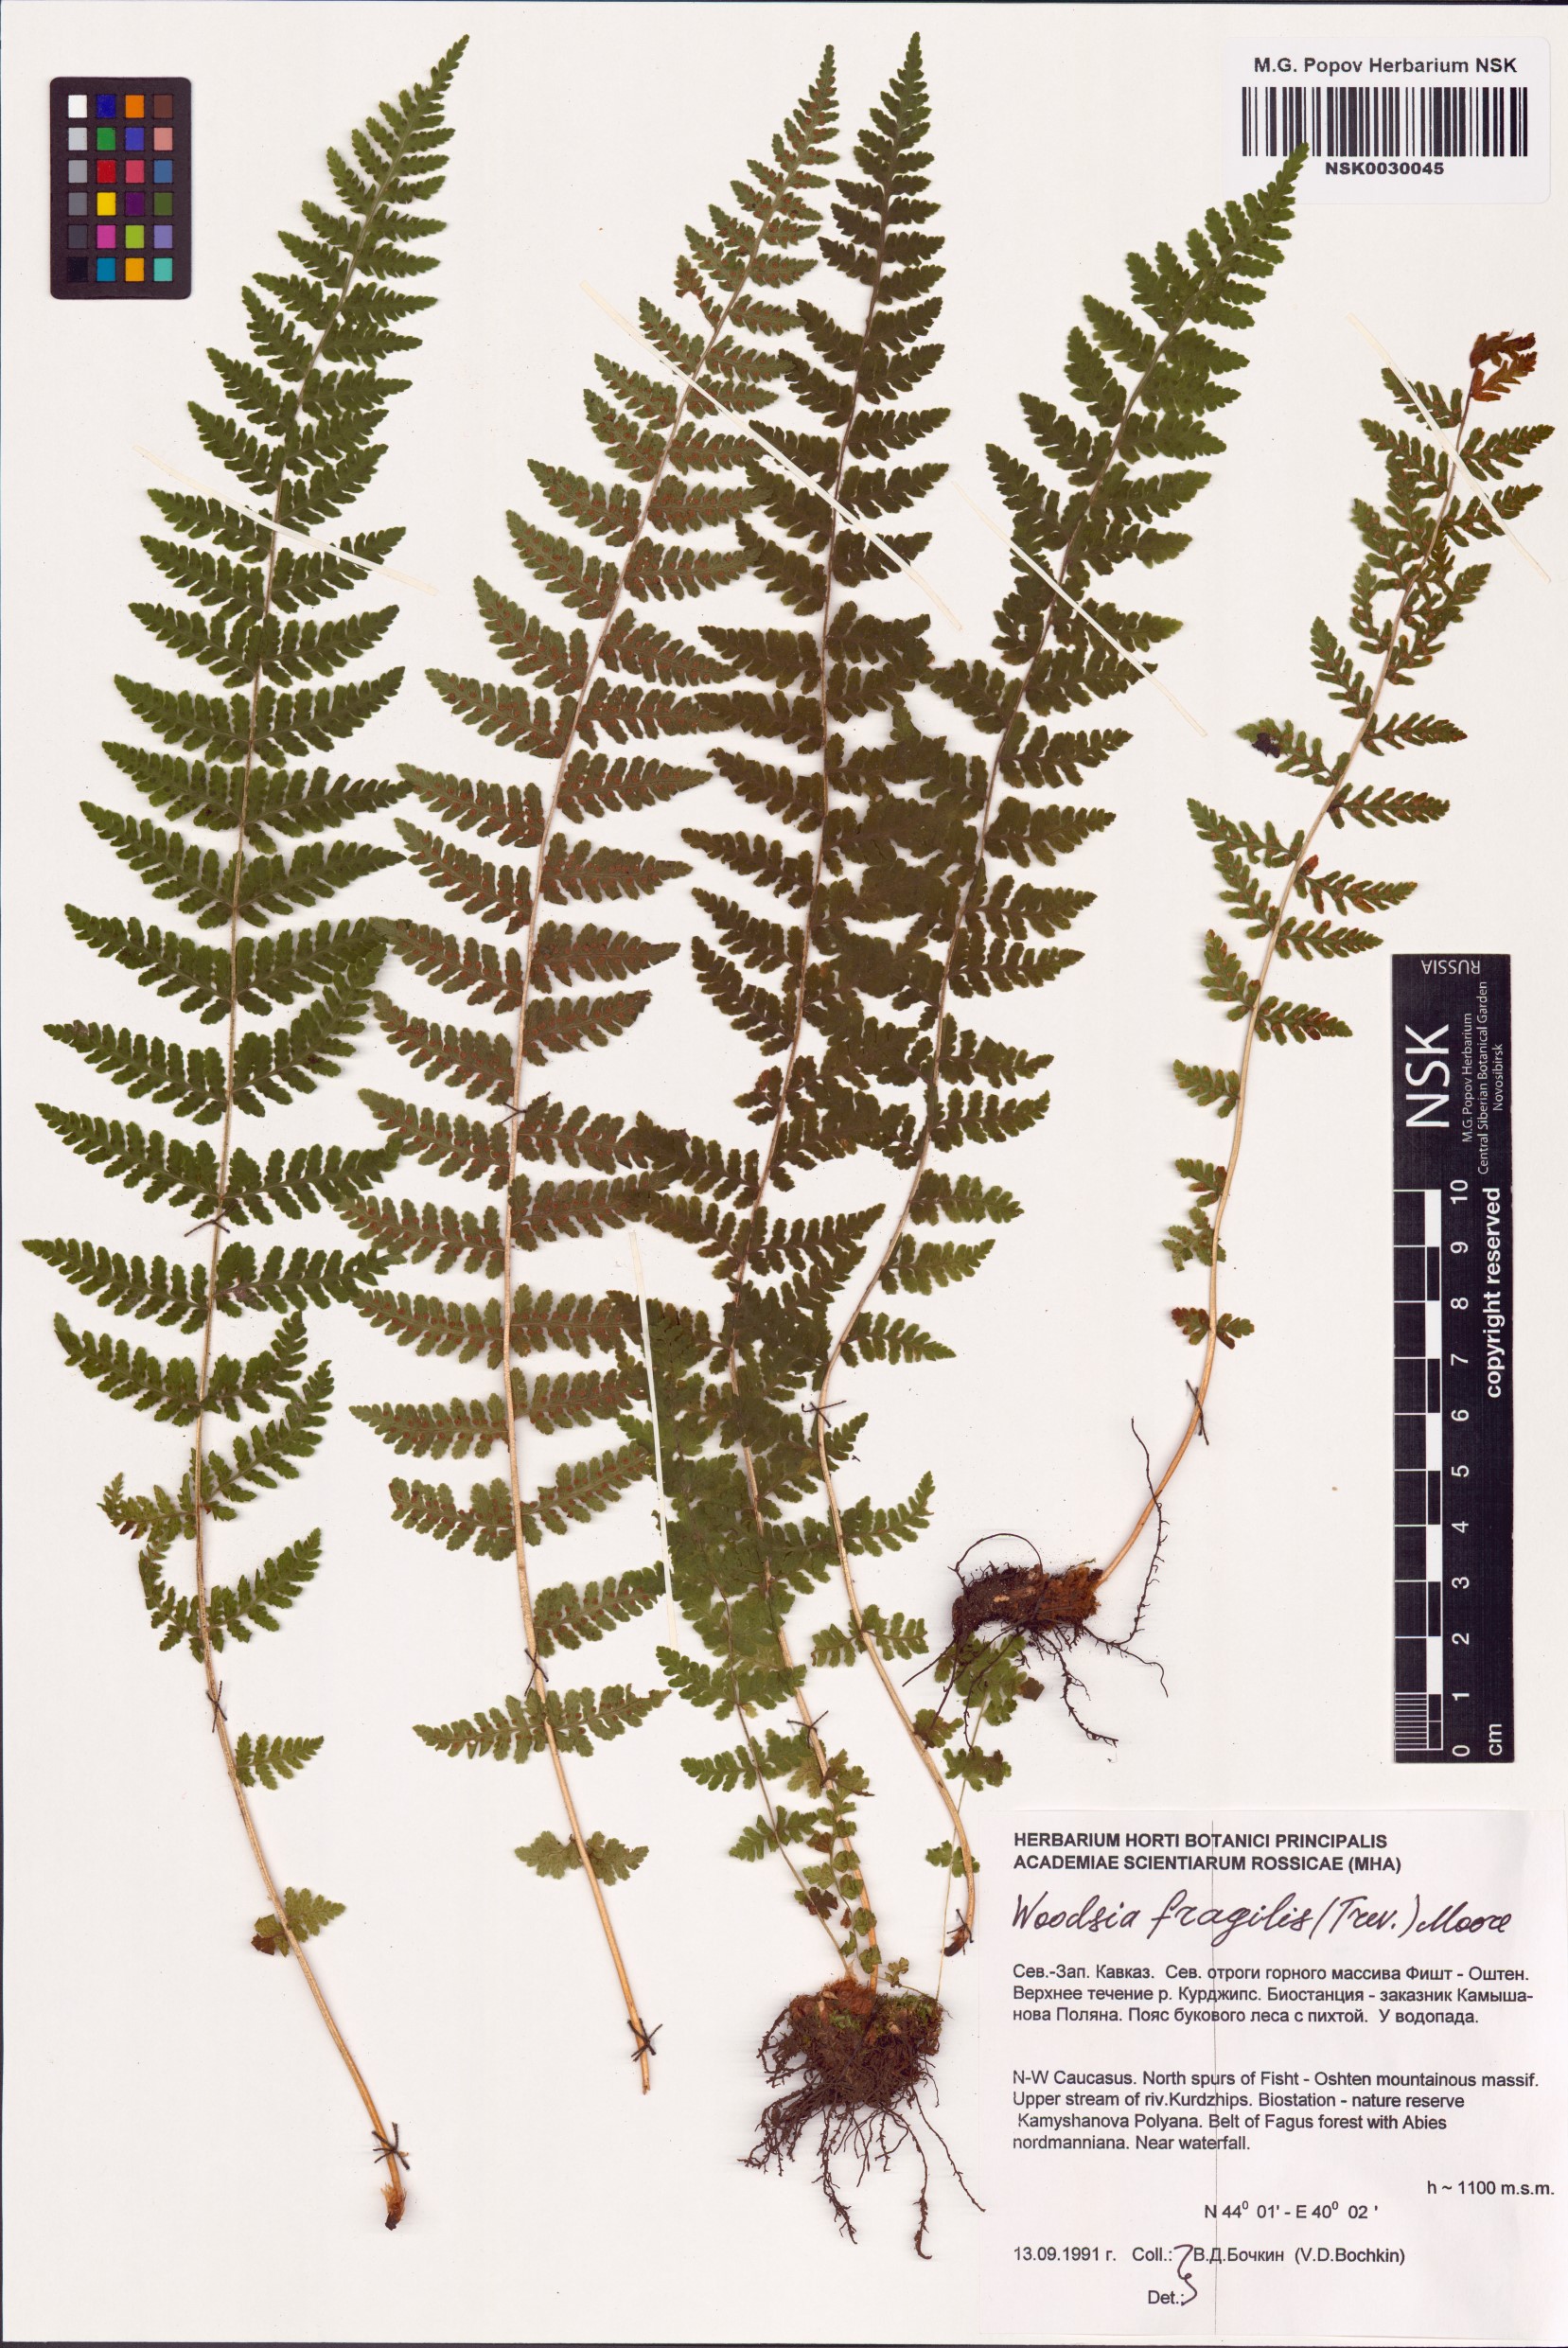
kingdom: Plantae
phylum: Tracheophyta
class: Polypodiopsida
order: Polypodiales
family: Woodsiaceae
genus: Physematium
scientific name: Physematium fragile
